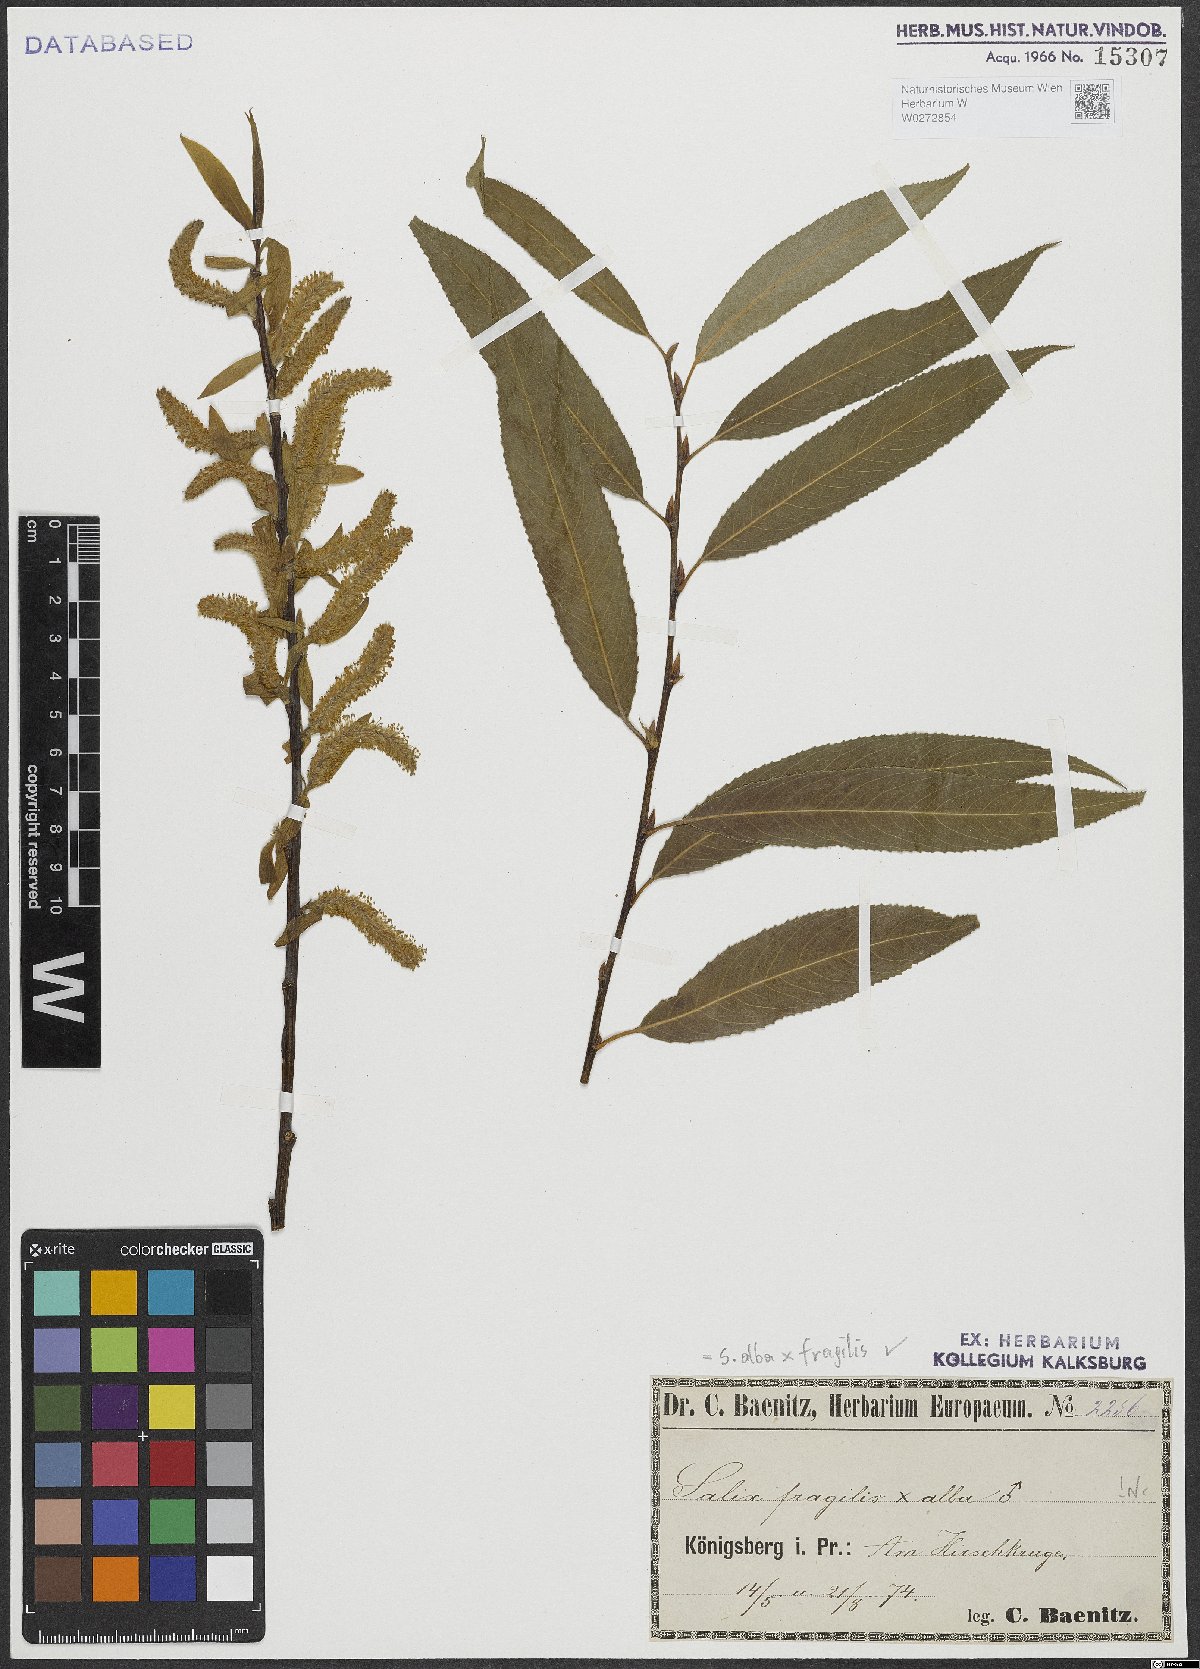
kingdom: Plantae
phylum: Tracheophyta
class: Magnoliopsida
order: Malpighiales
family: Salicaceae
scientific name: Salicaceae
